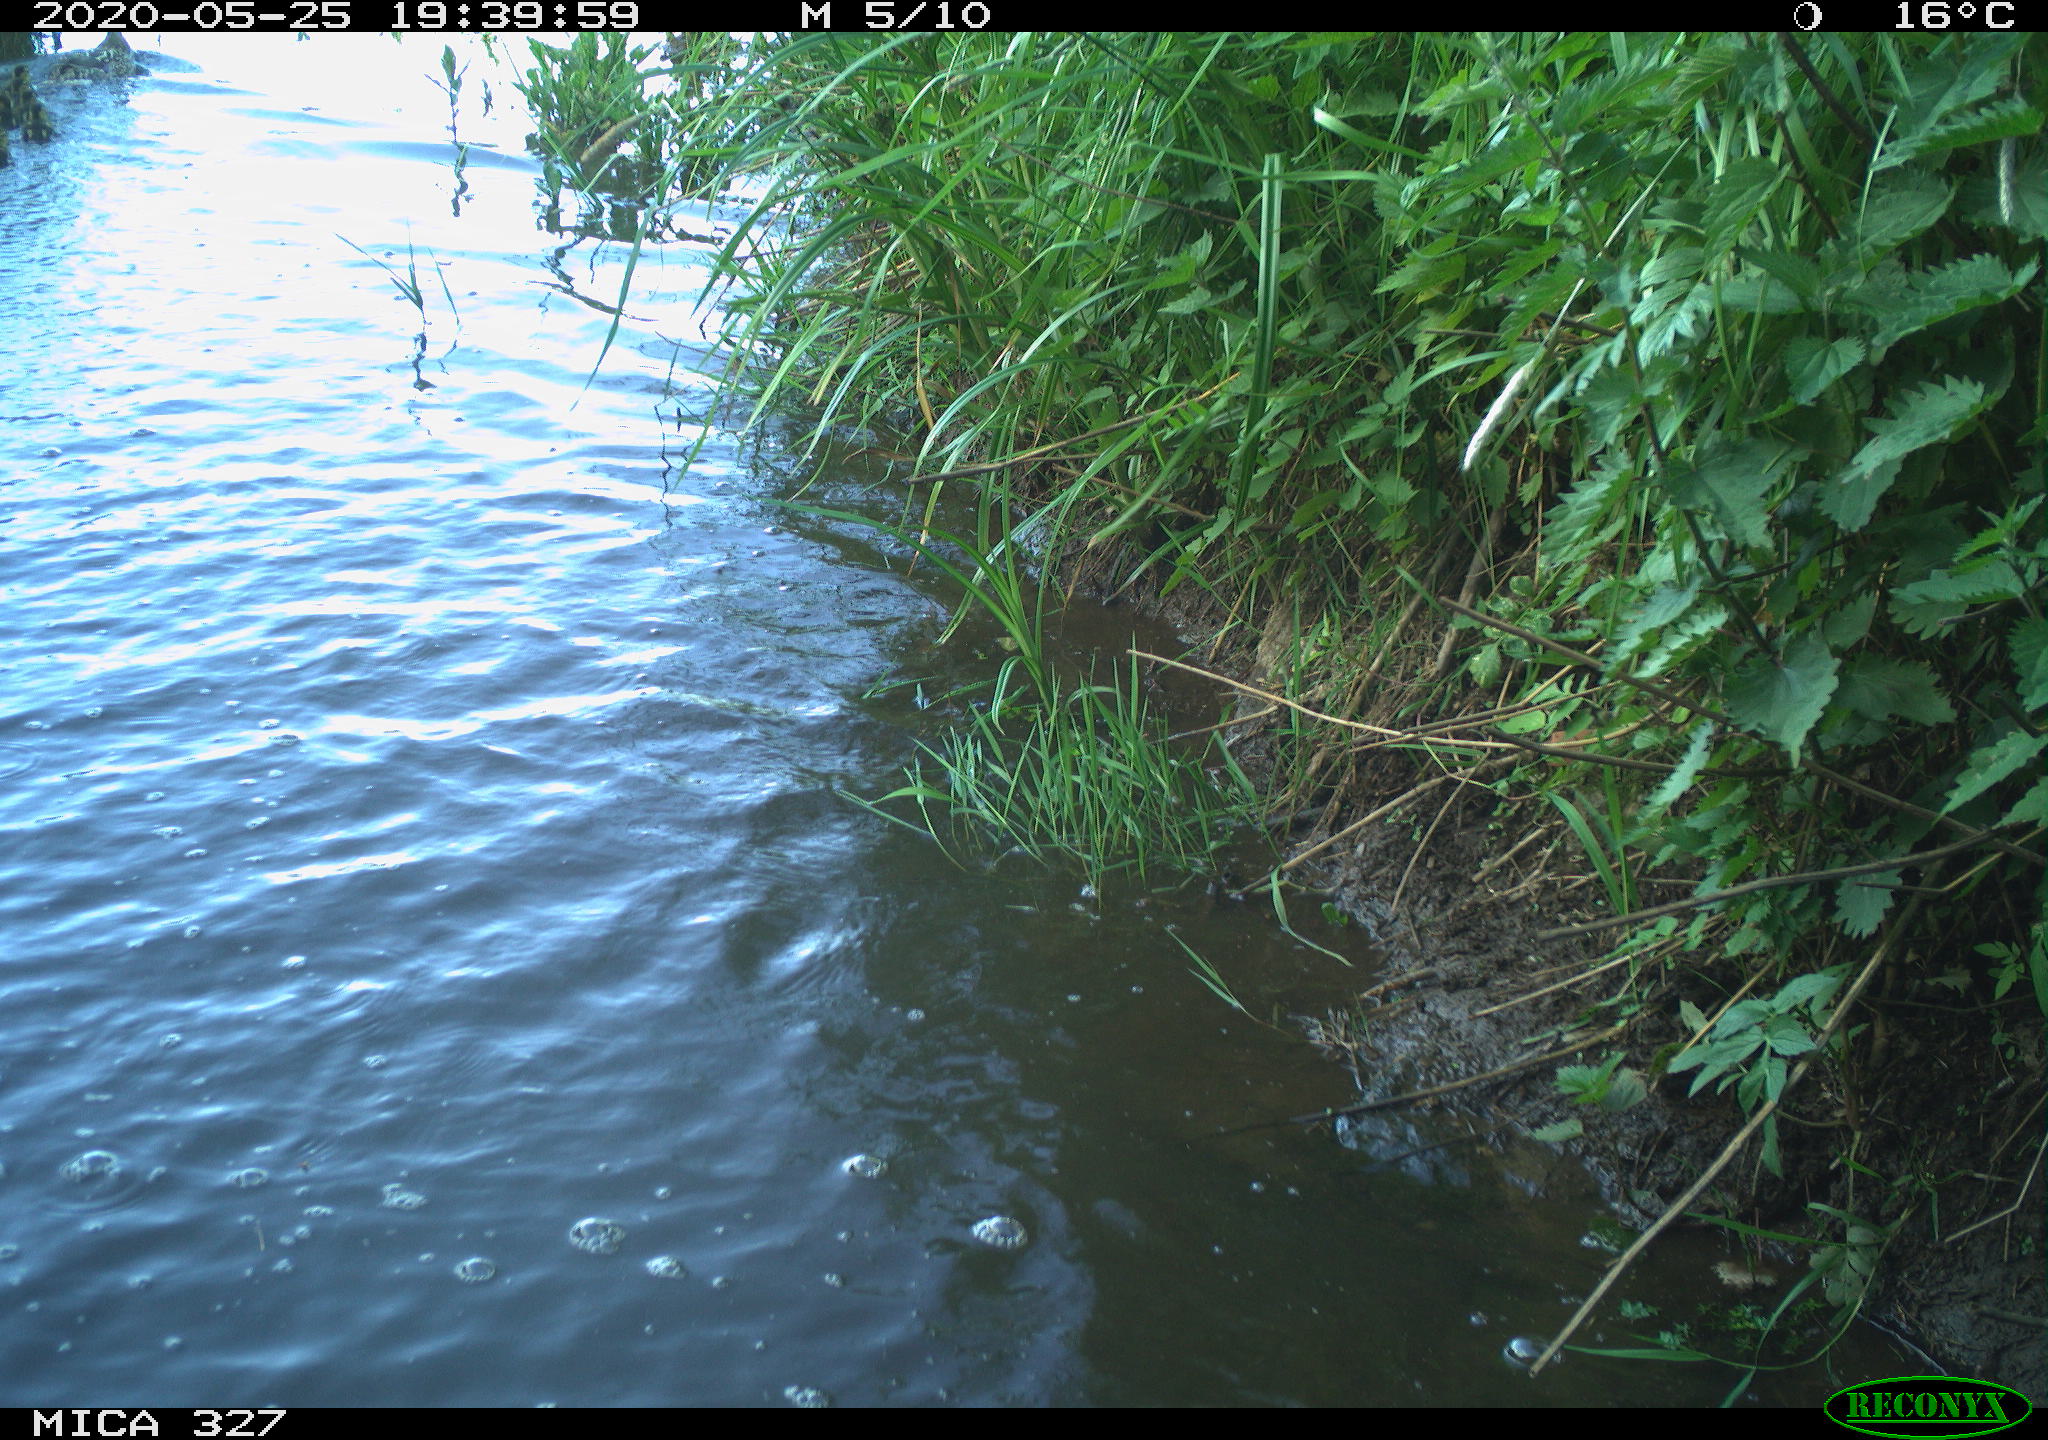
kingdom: Animalia
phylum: Chordata
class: Aves
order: Anseriformes
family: Anatidae
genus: Anas
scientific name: Anas platyrhynchos
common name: Mallard
